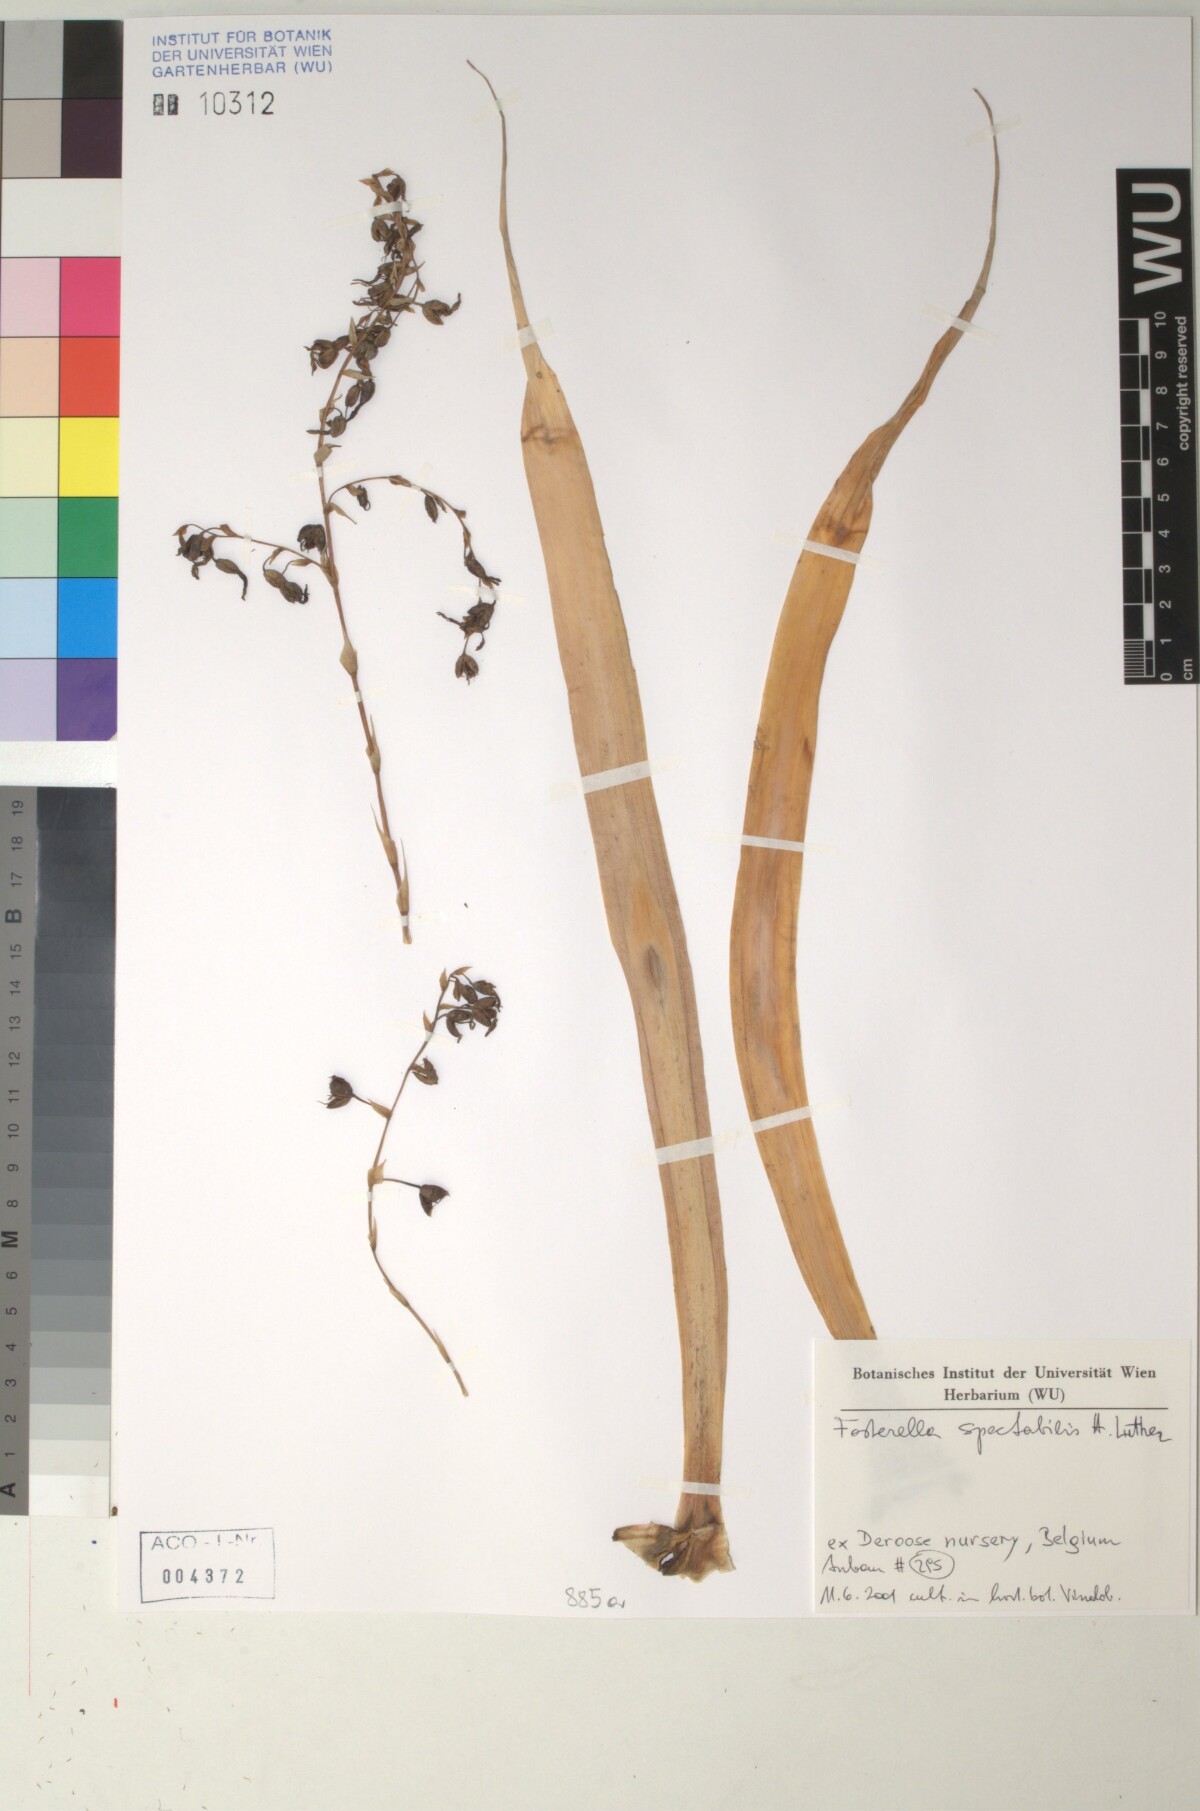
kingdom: Plantae
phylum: Tracheophyta
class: Liliopsida
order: Poales
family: Bromeliaceae
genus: Fosterella
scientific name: Fosterella spectabilis
